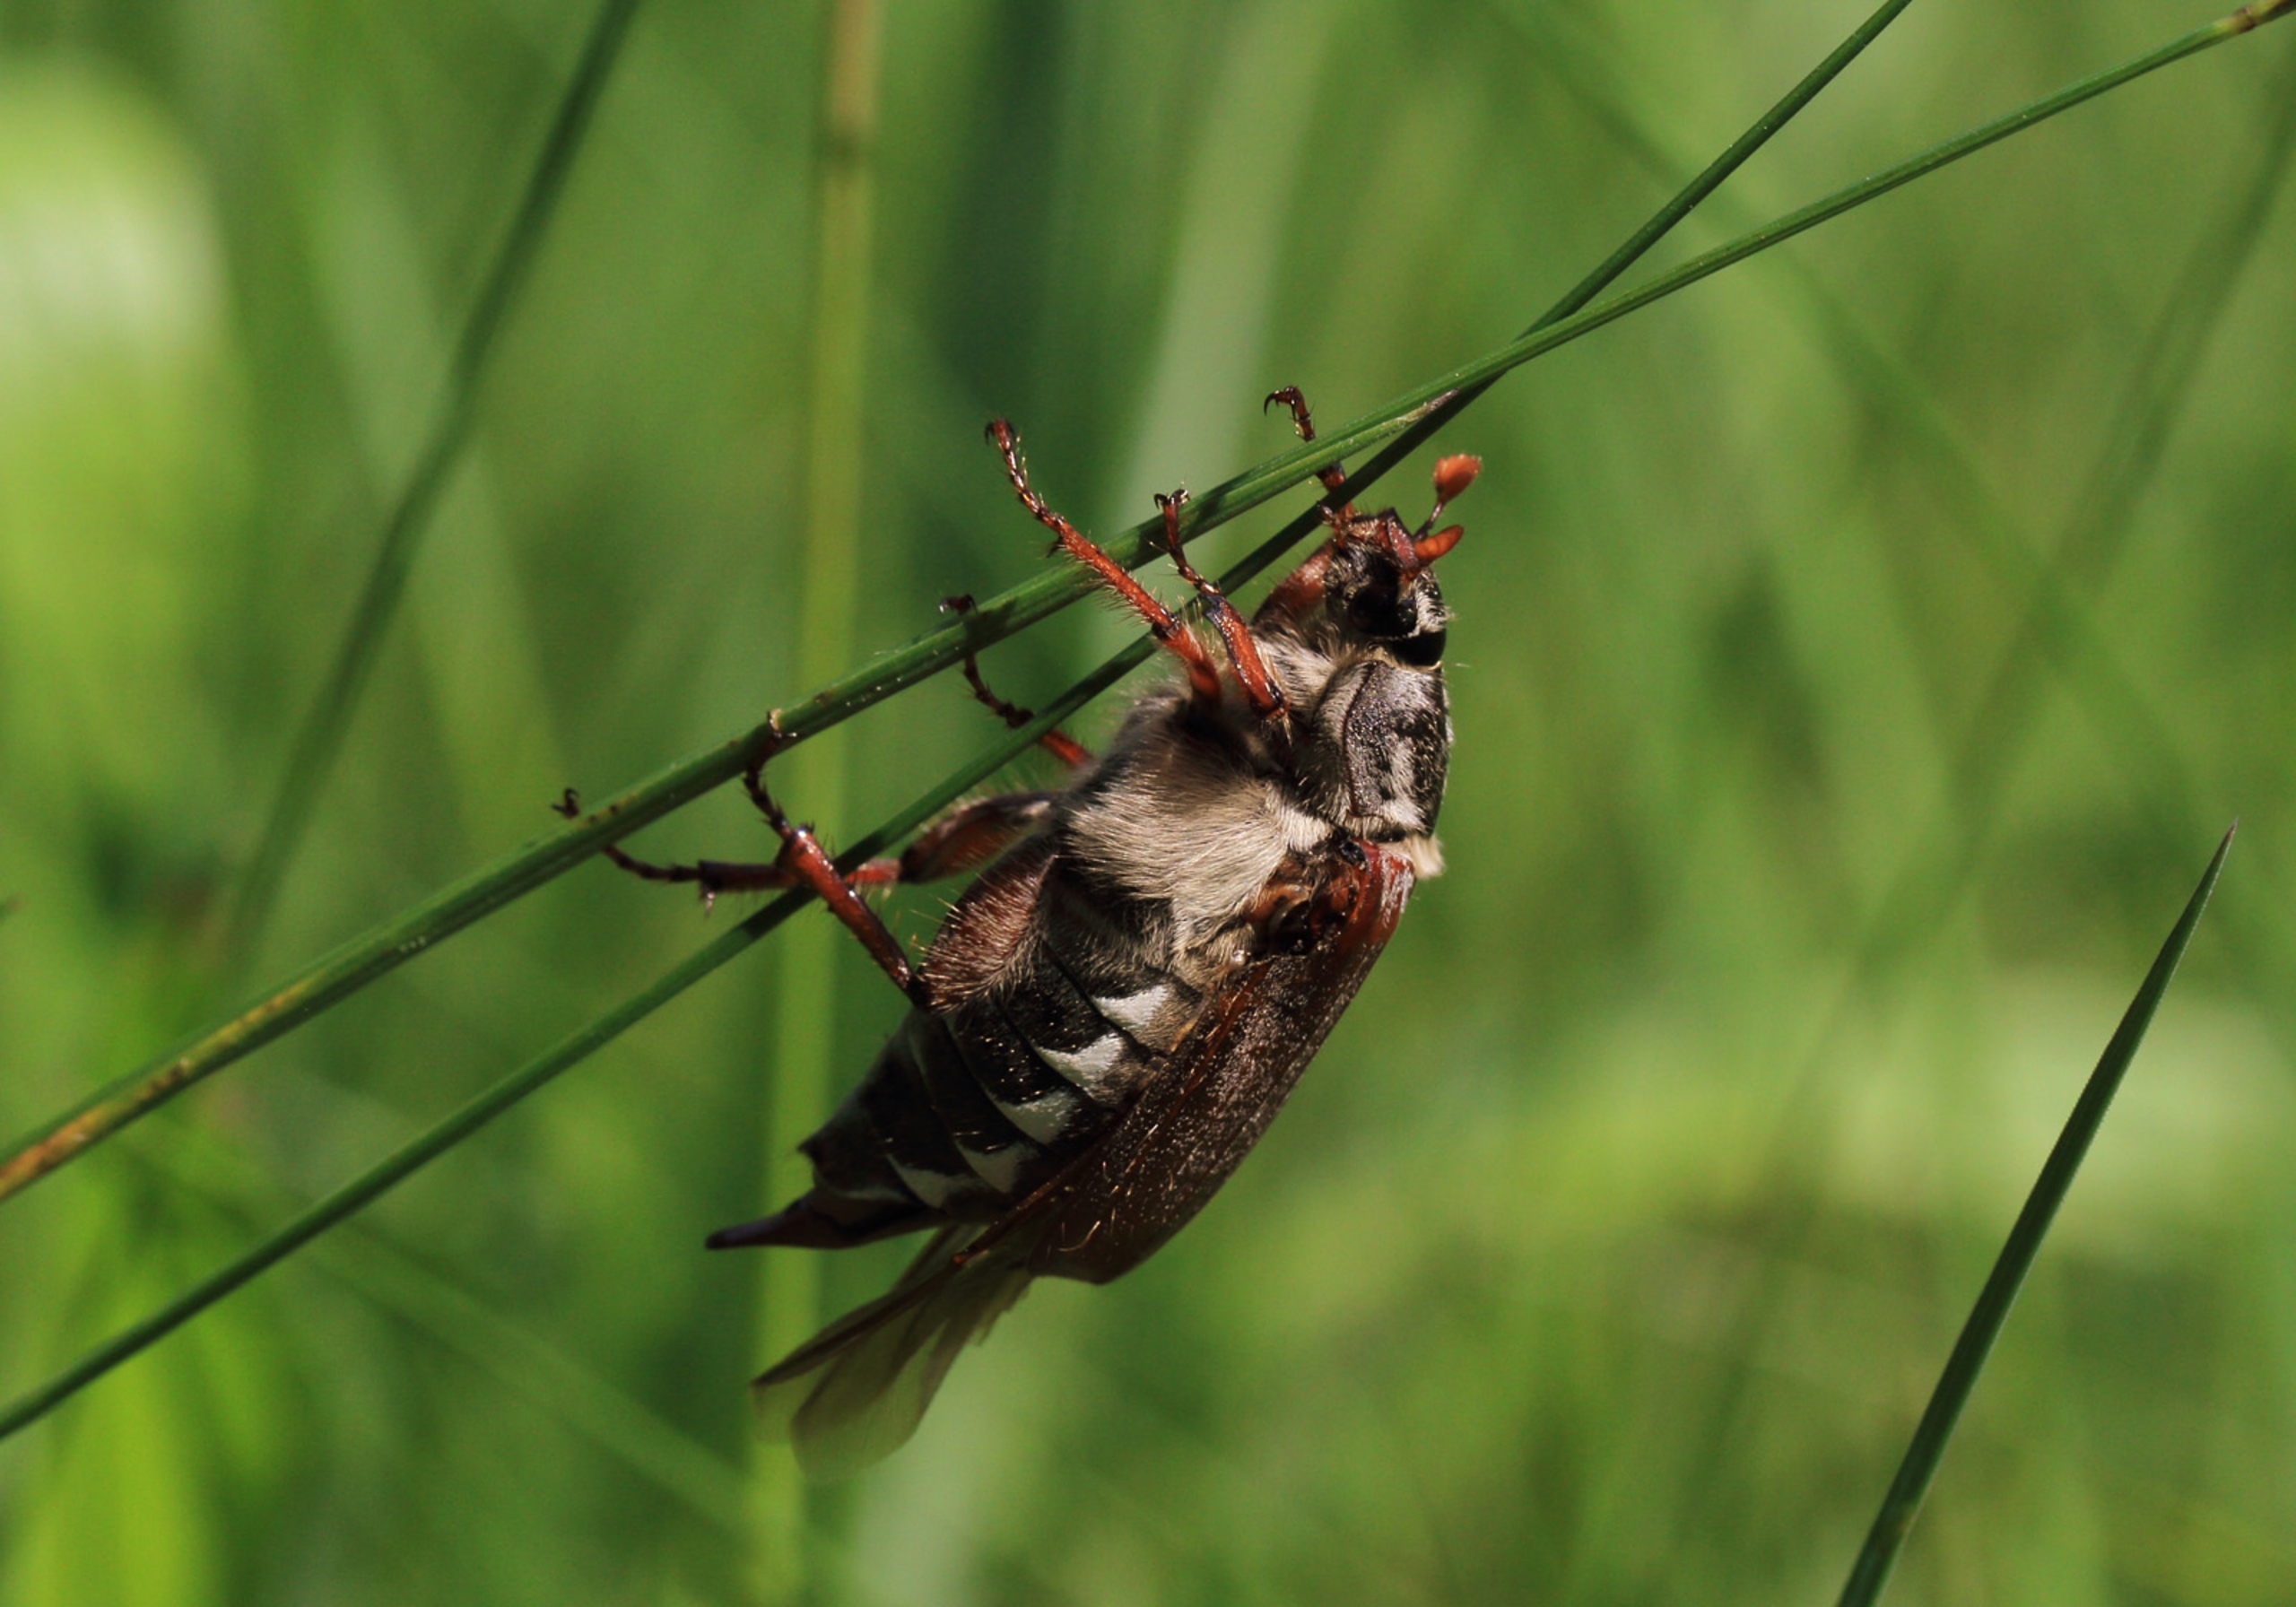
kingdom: Animalia
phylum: Arthropoda
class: Insecta
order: Coleoptera
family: Scarabaeidae
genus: Melolontha
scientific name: Melolontha melolontha
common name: Almindelig oldenborre
